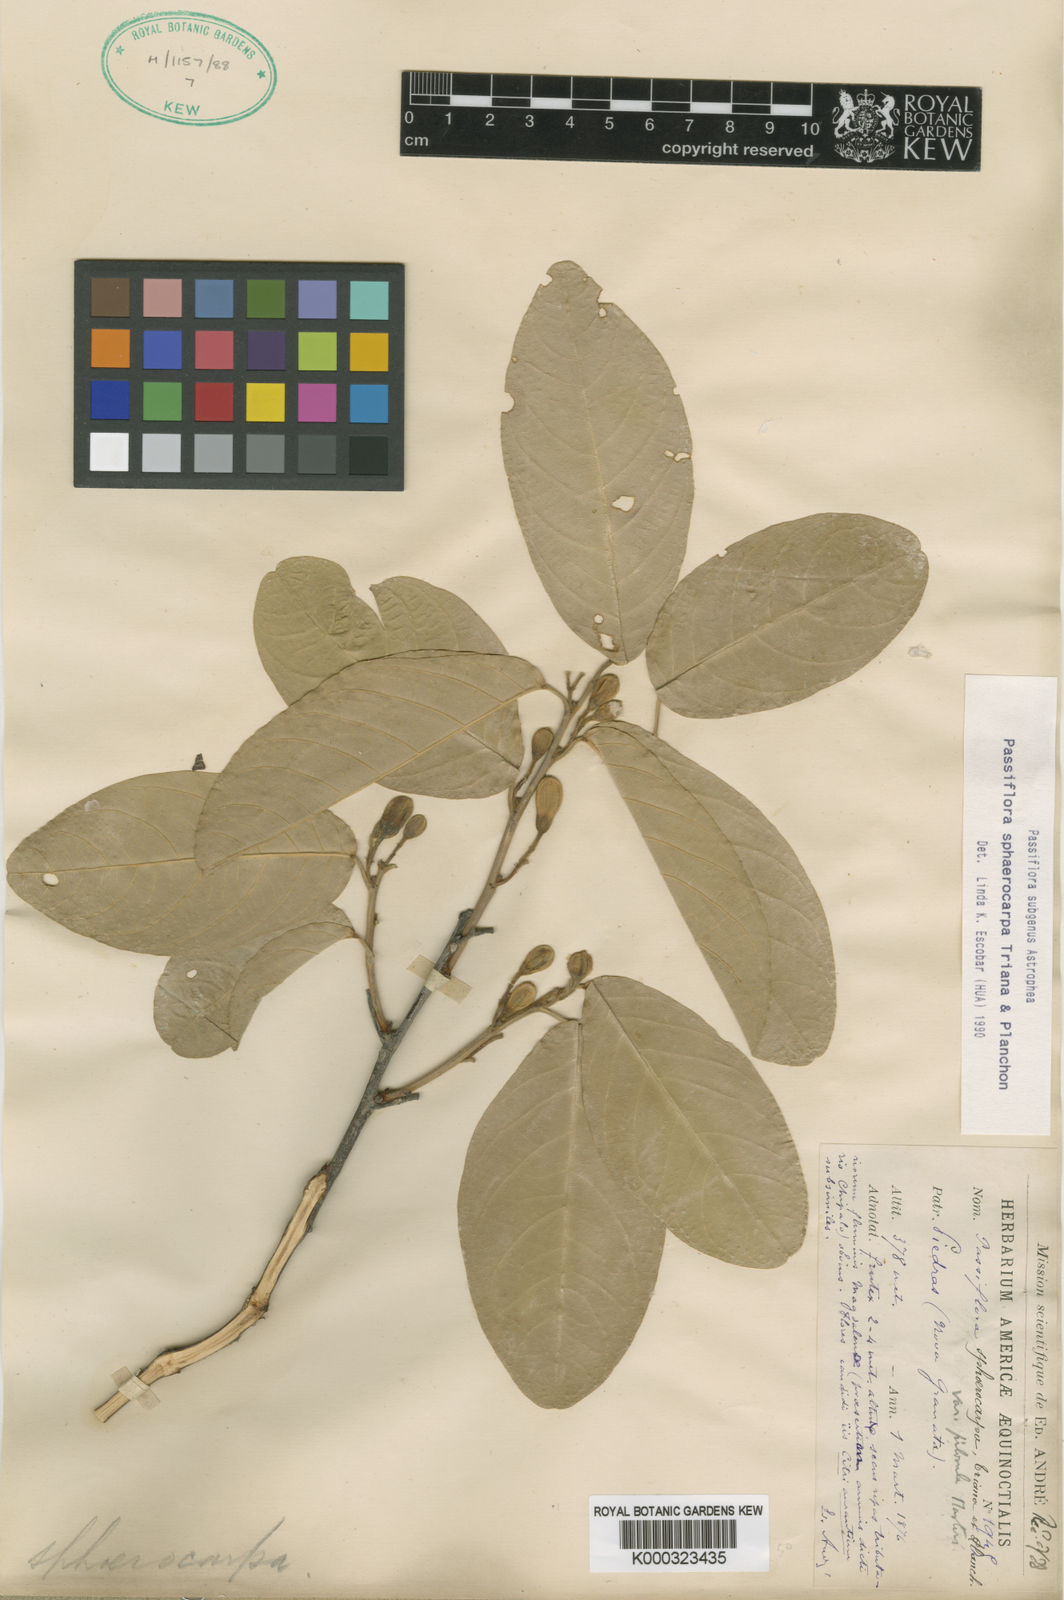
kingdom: Plantae
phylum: Tracheophyta
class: Magnoliopsida
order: Malpighiales
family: Passifloraceae
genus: Passiflora
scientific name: Passiflora sphaerocarpa
